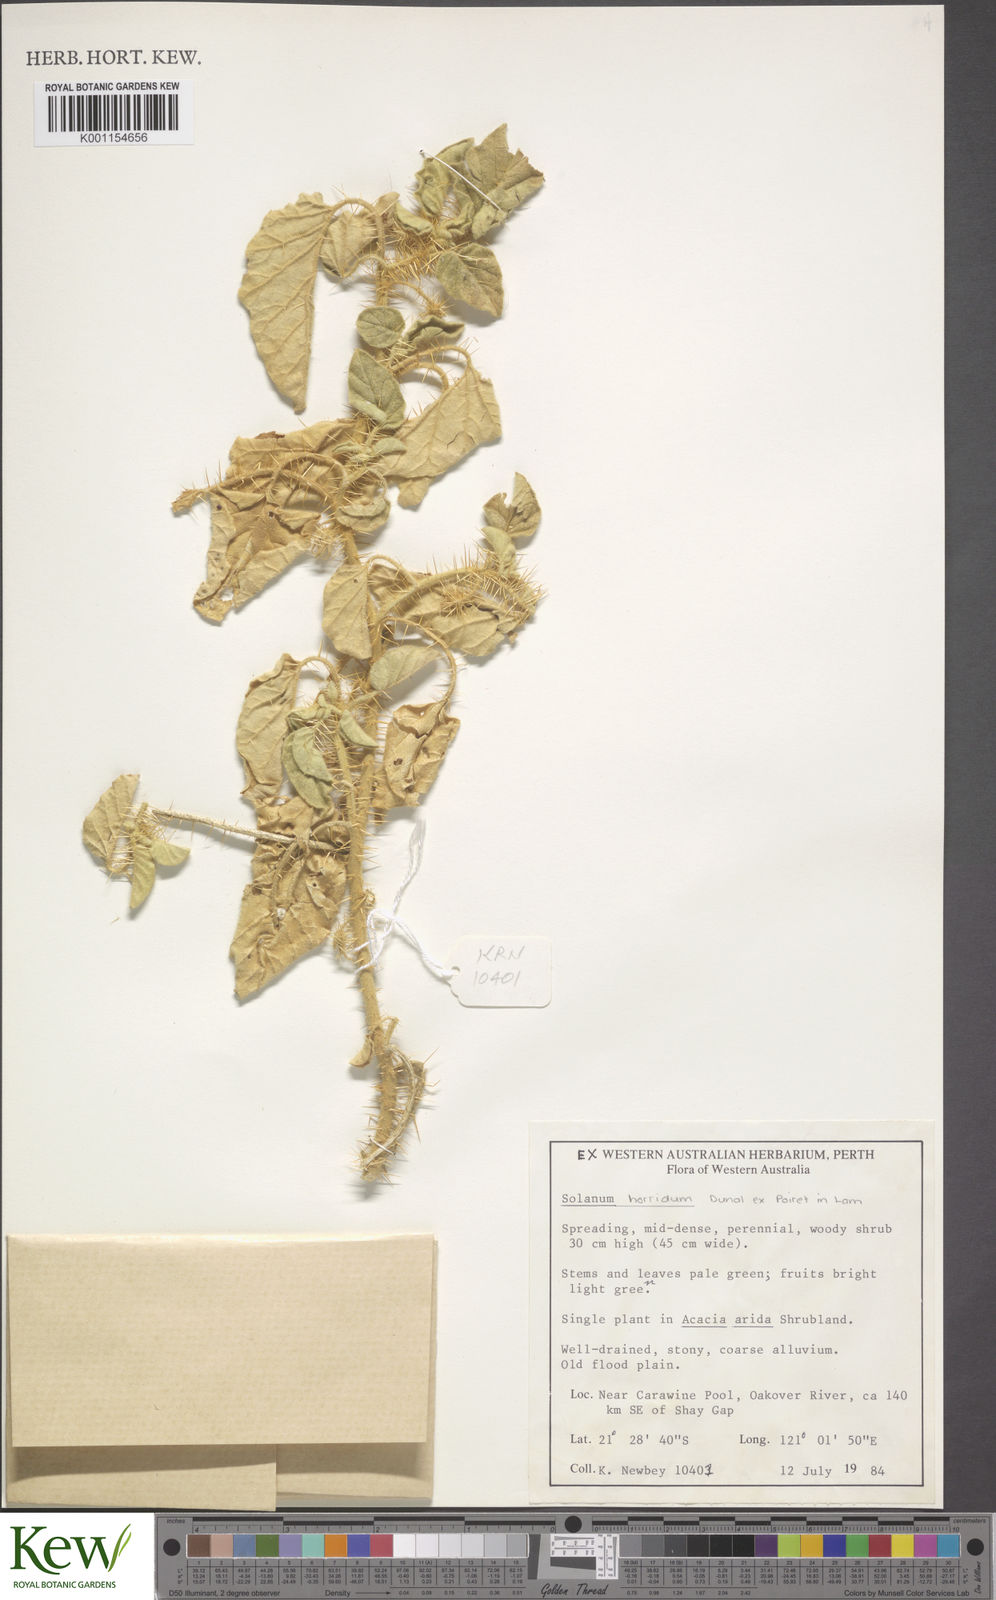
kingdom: Plantae
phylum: Tracheophyta
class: Magnoliopsida
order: Solanales
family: Solanaceae
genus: Solanum
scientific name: Solanum horridum
